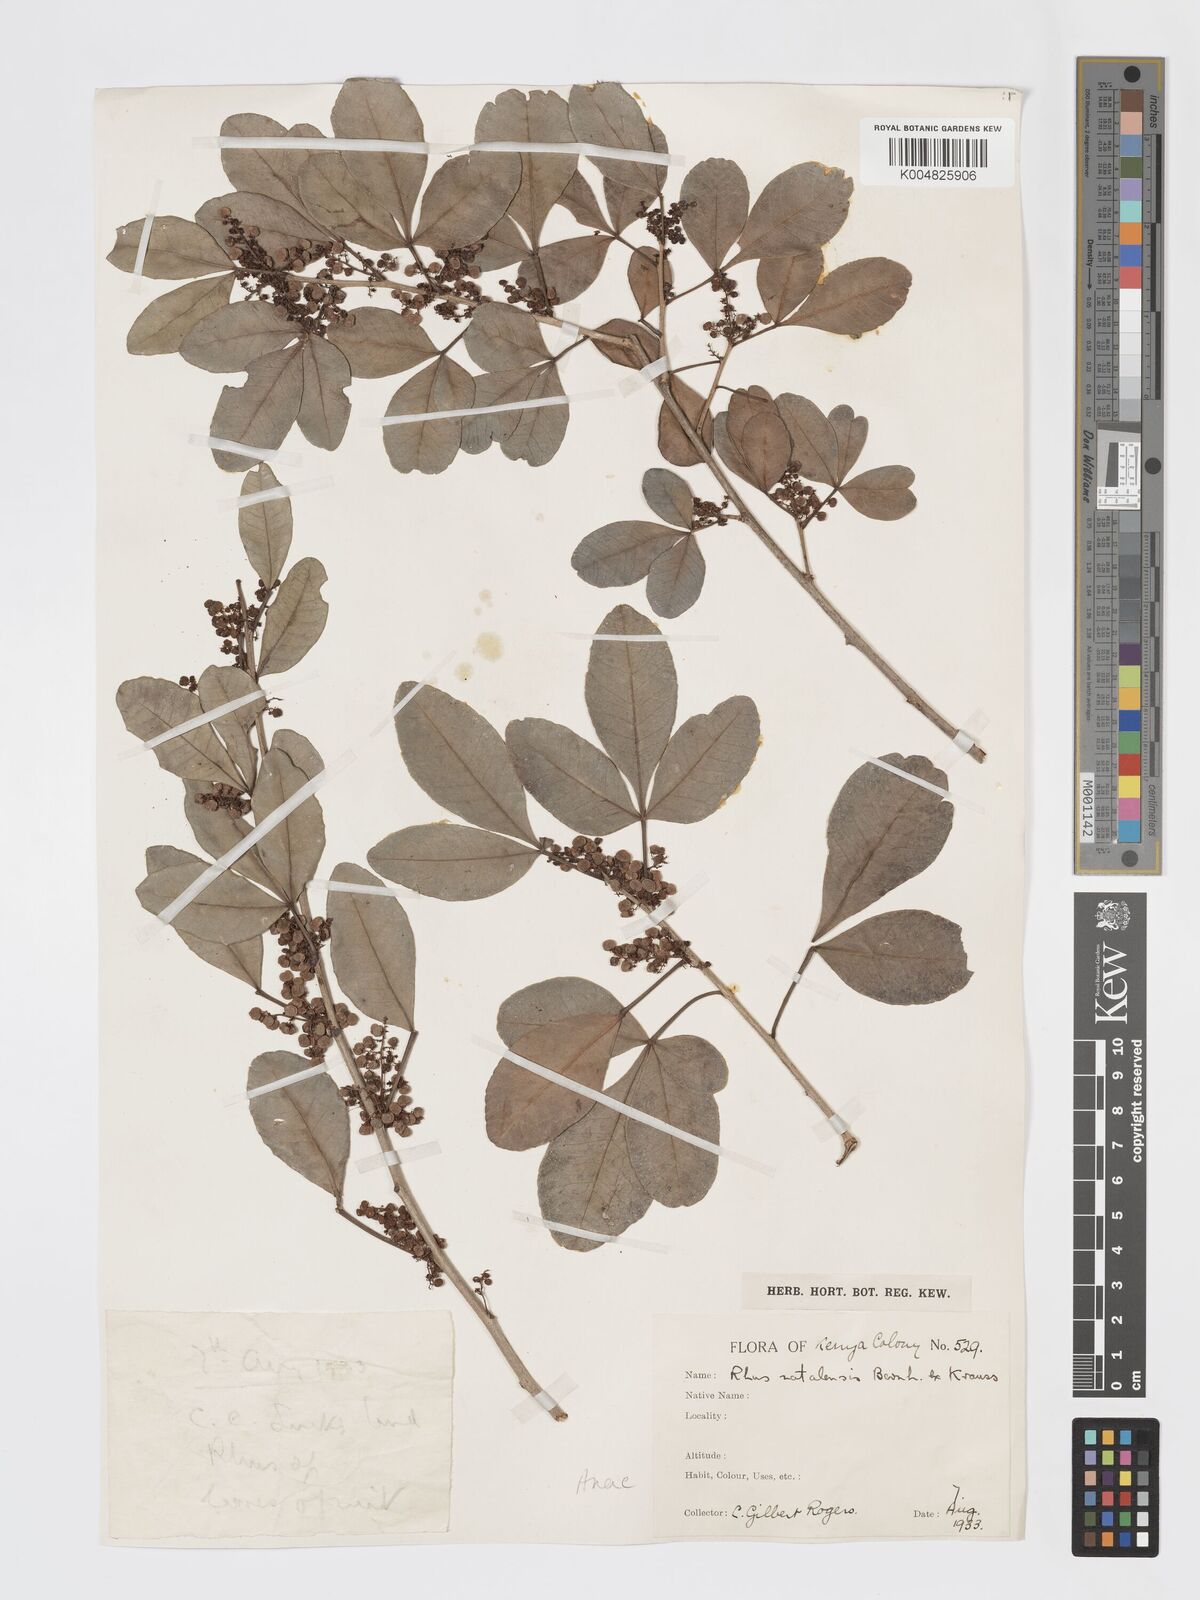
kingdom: Plantae
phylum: Tracheophyta
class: Magnoliopsida
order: Sapindales
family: Anacardiaceae
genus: Searsia
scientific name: Searsia natalensis
